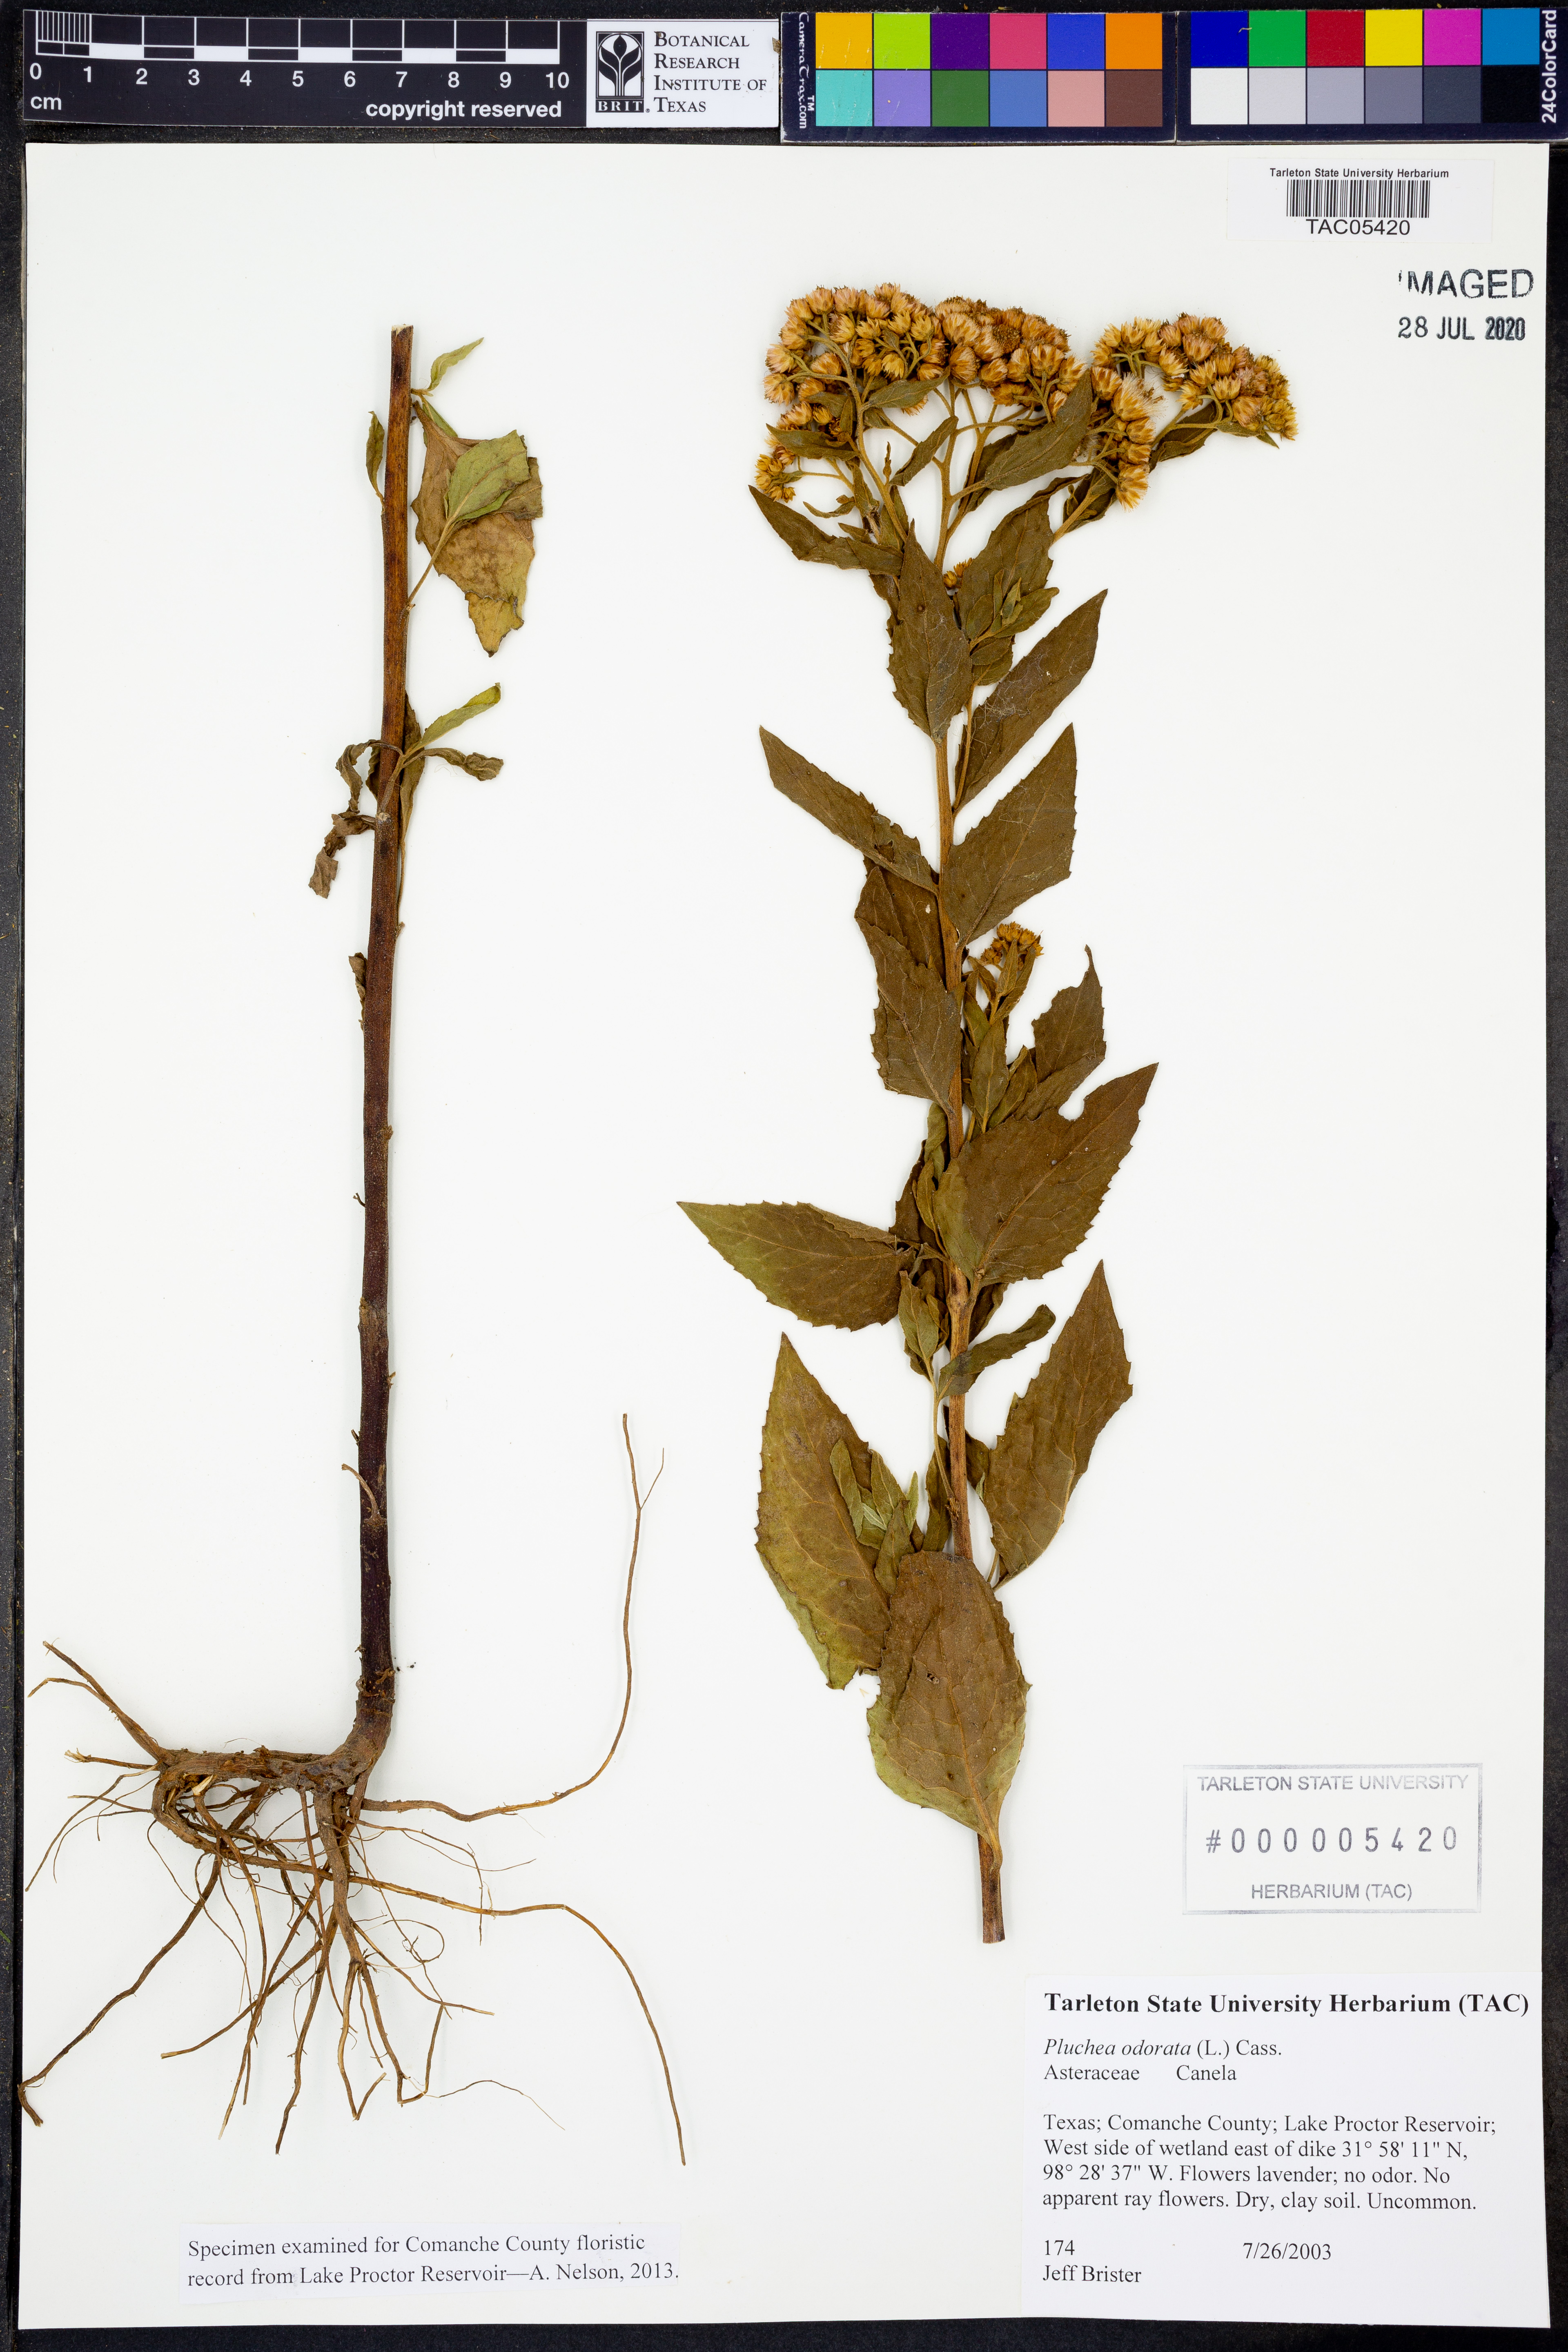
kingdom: Plantae
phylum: Tracheophyta
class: Magnoliopsida
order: Asterales
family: Asteraceae
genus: Pluchea
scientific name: Pluchea odorata
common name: Saltmarsh fleabane
